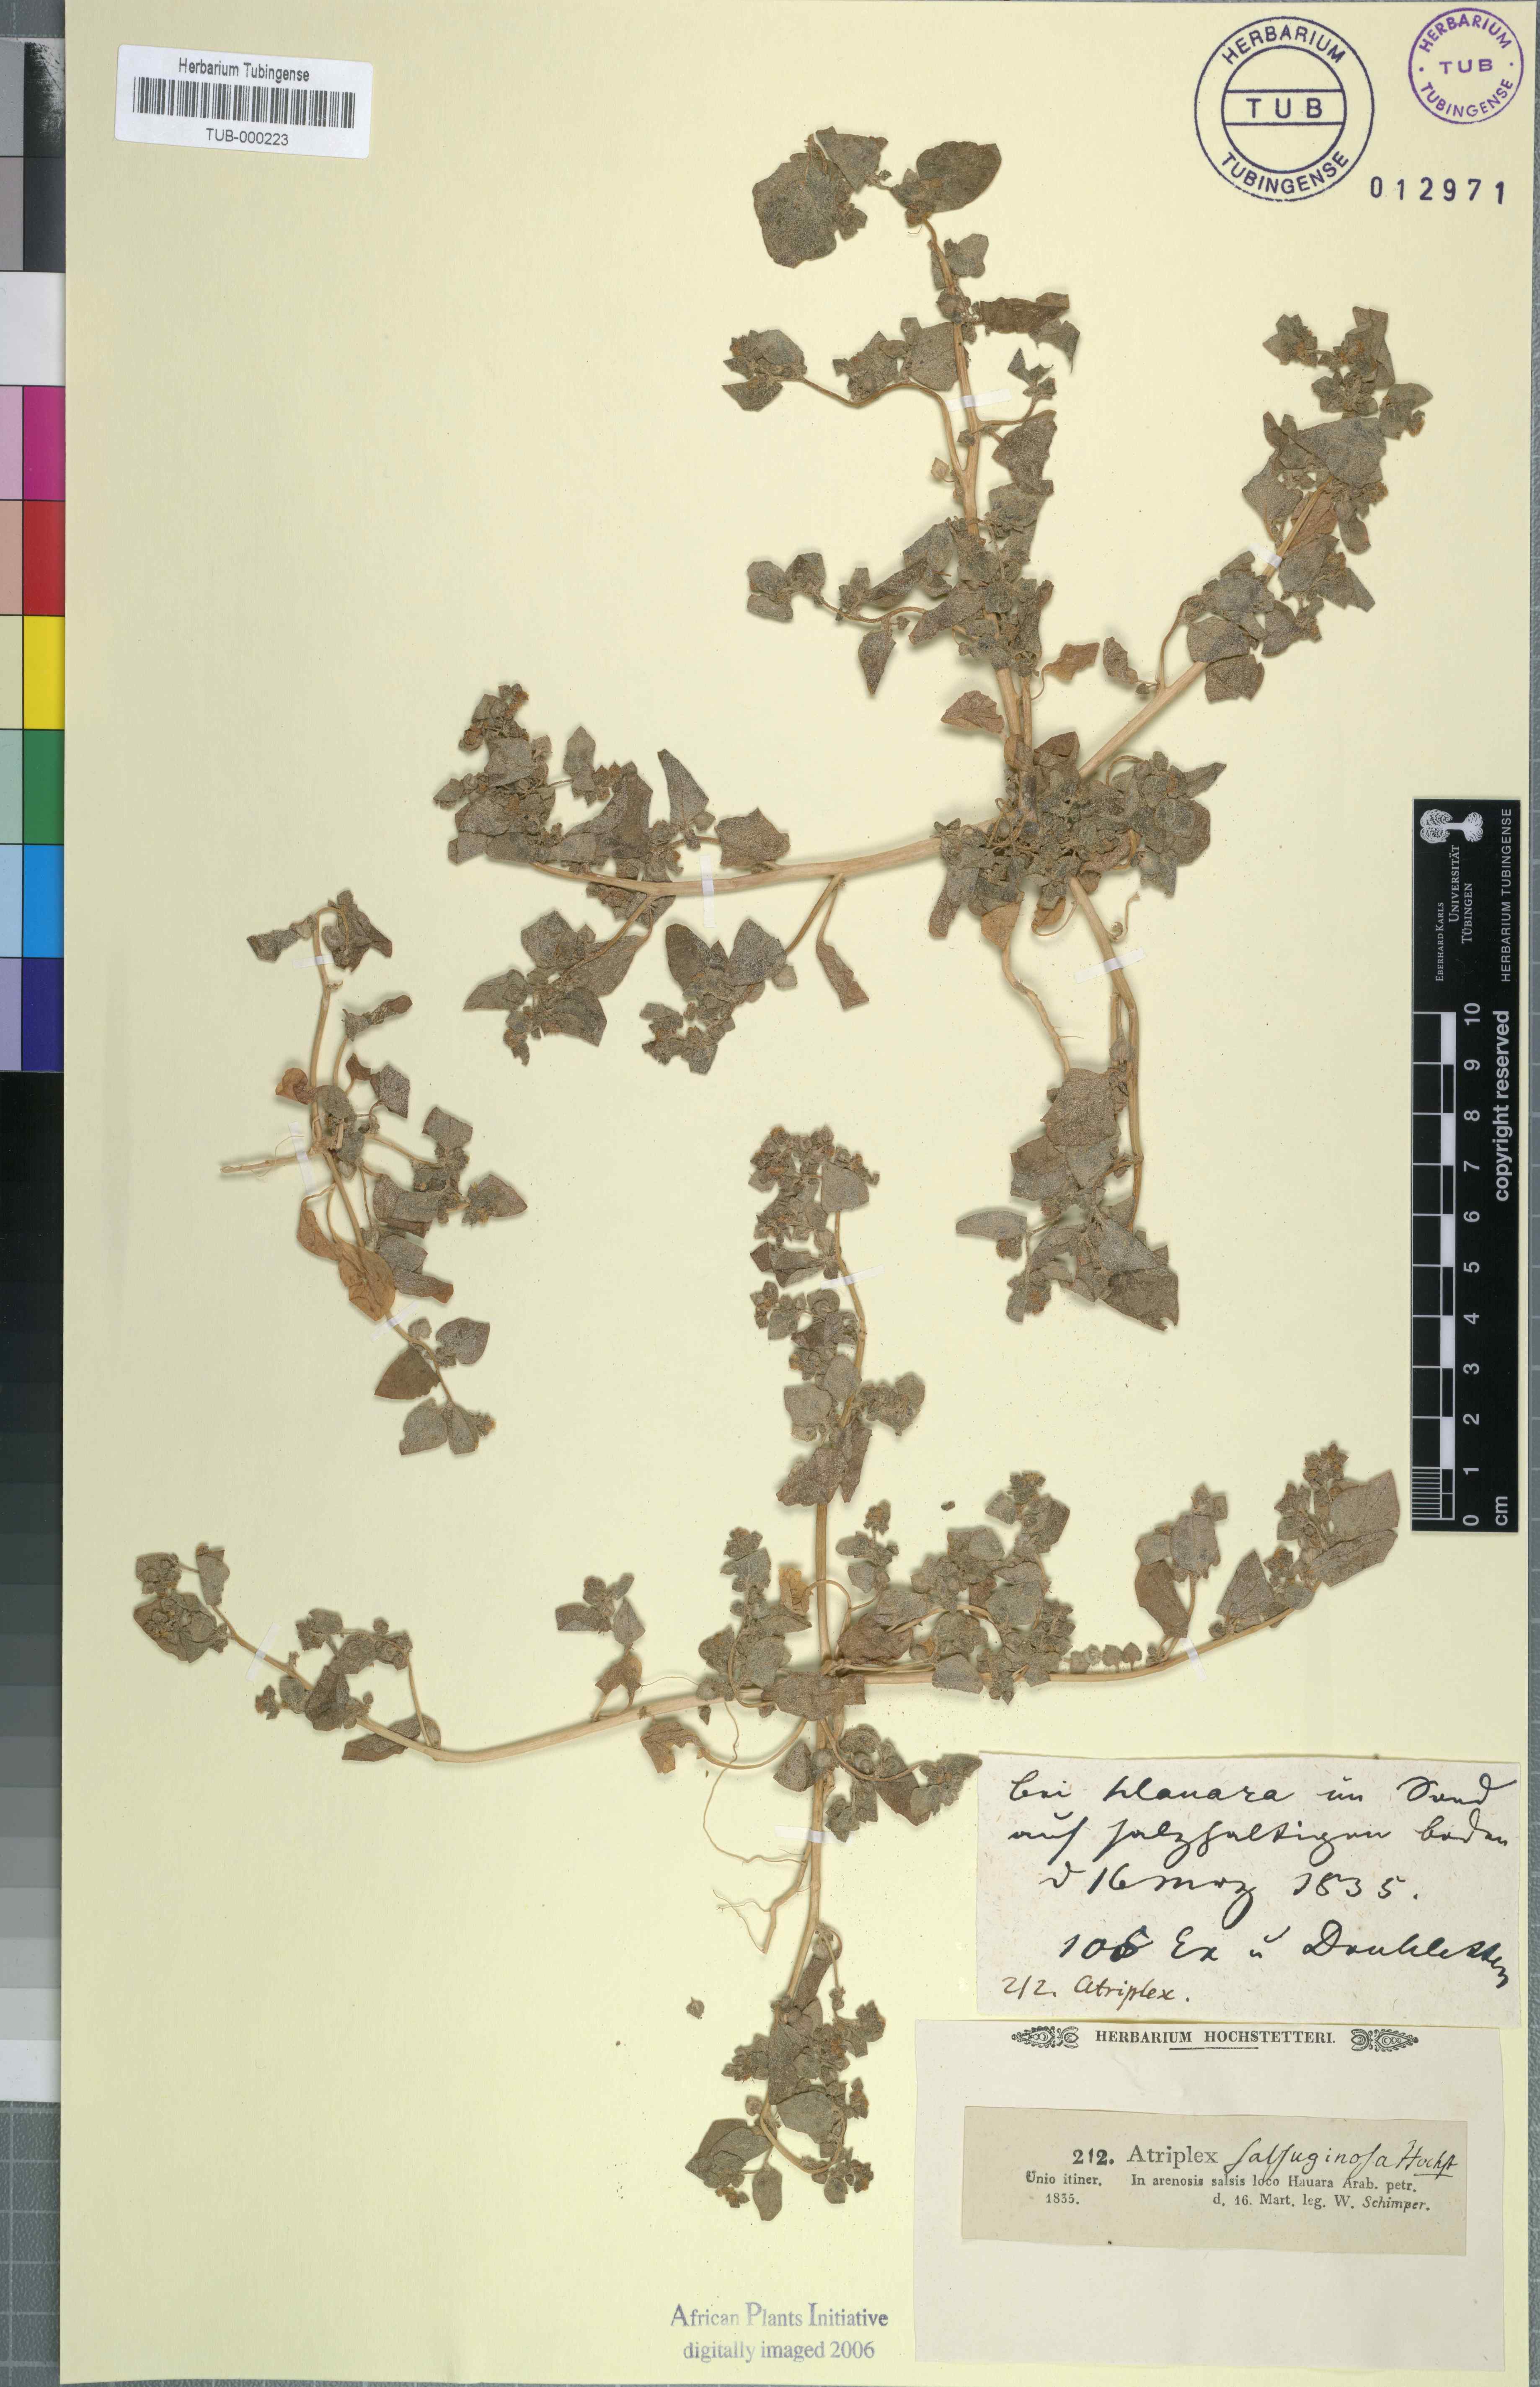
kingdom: Plantae
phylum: Tracheophyta
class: Magnoliopsida
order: Caryophyllales
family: Amaranthaceae
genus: Atriplex
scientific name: Atriplex
